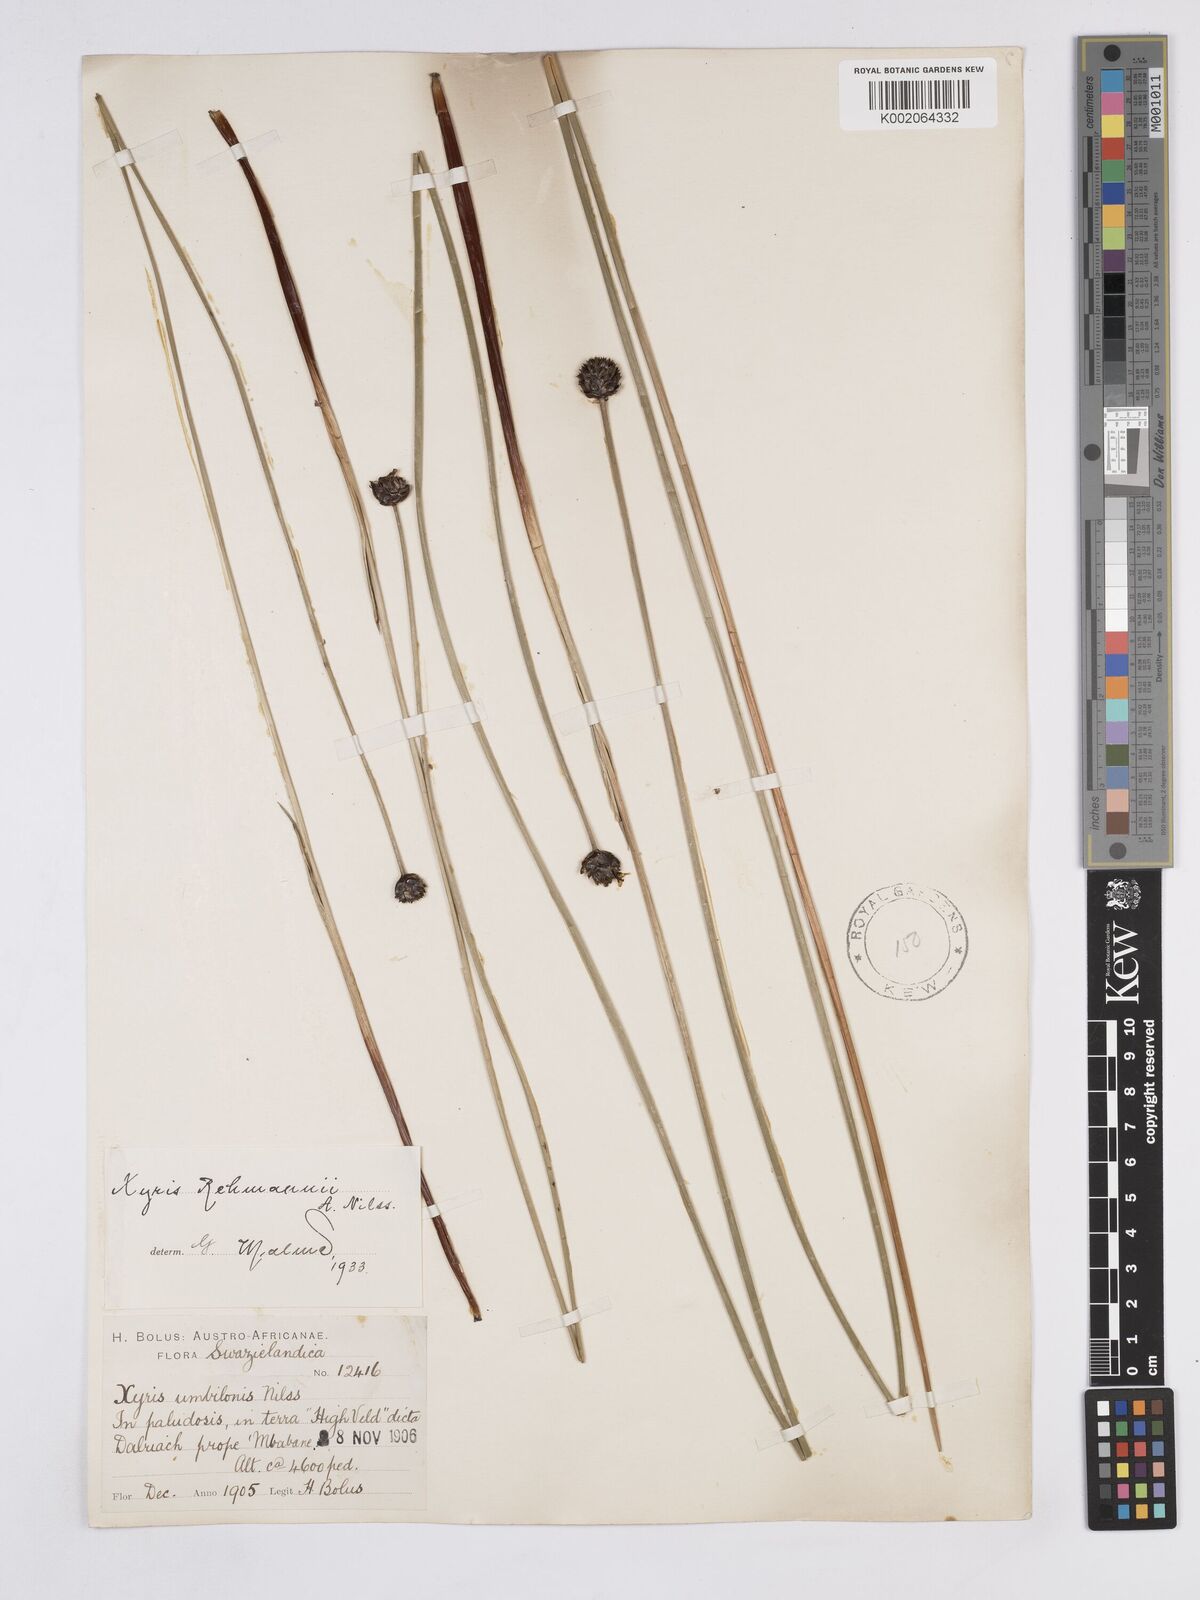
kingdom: Plantae
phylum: Tracheophyta
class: Liliopsida
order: Poales
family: Xyridaceae
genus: Xyris
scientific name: Xyris rehmannii
